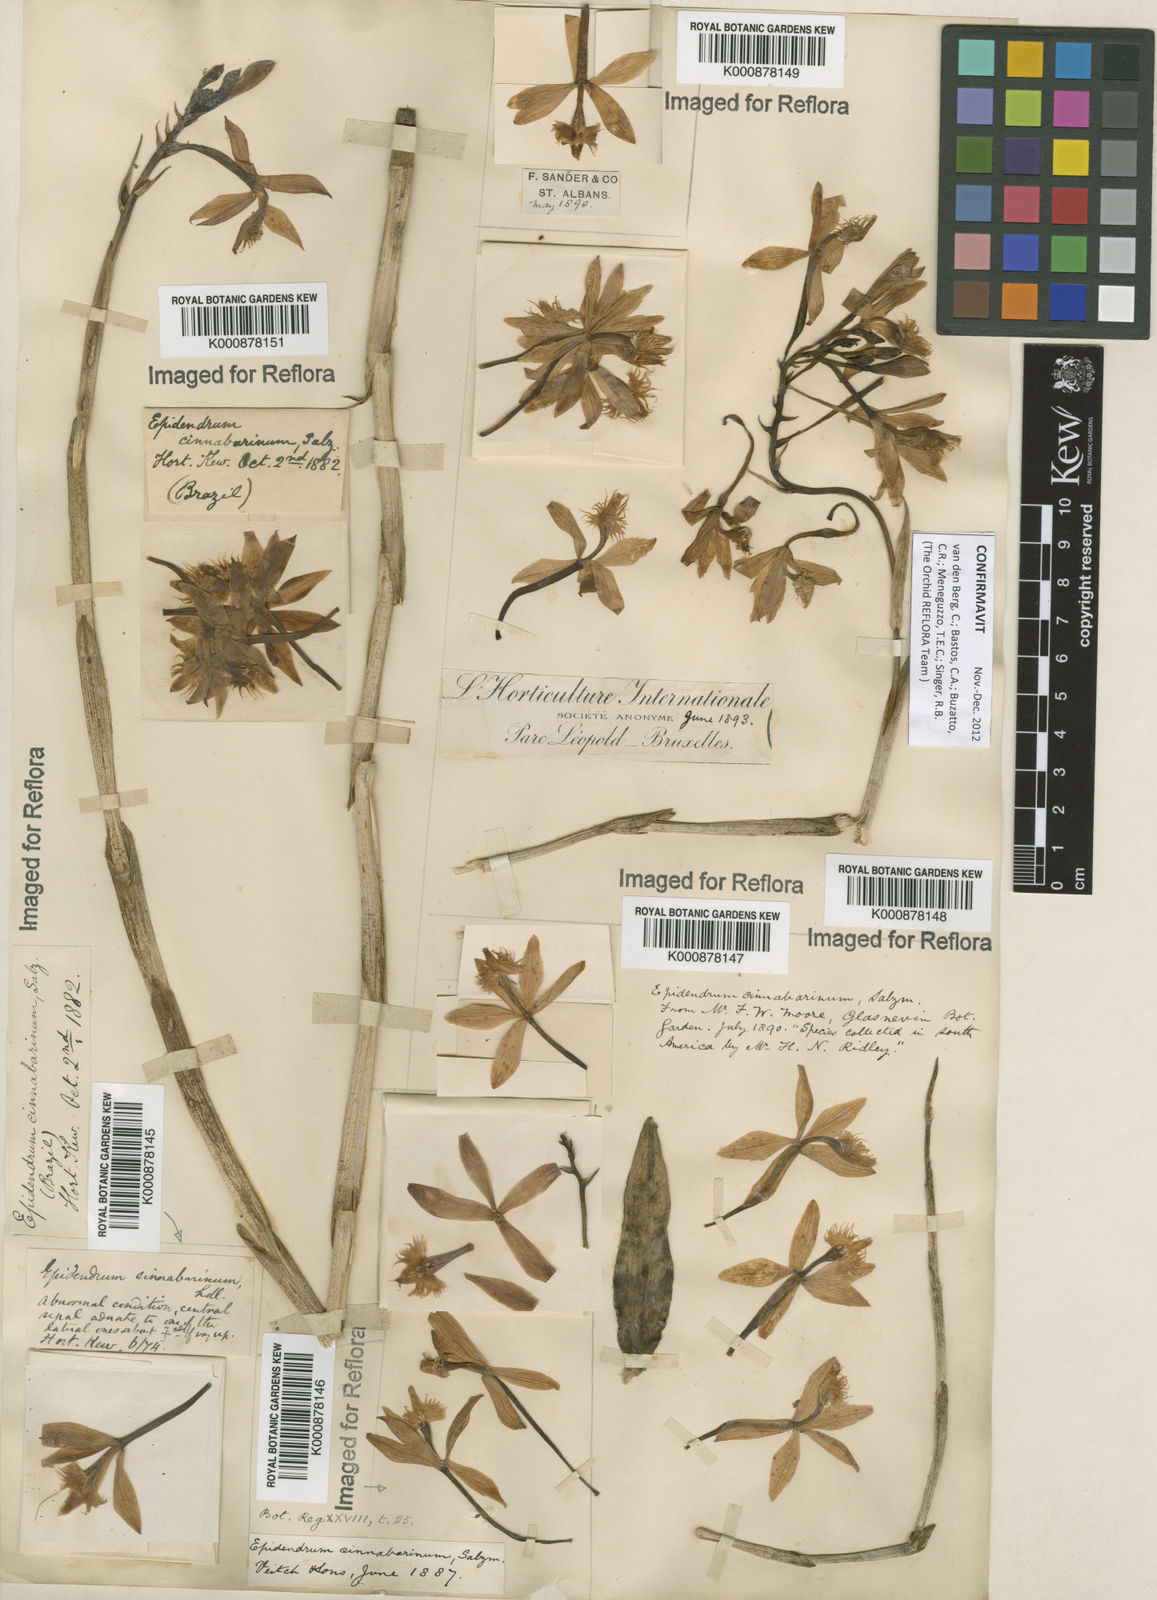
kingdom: Plantae
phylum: Tracheophyta
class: Liliopsida
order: Asparagales
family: Orchidaceae
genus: Epidendrum
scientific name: Epidendrum
